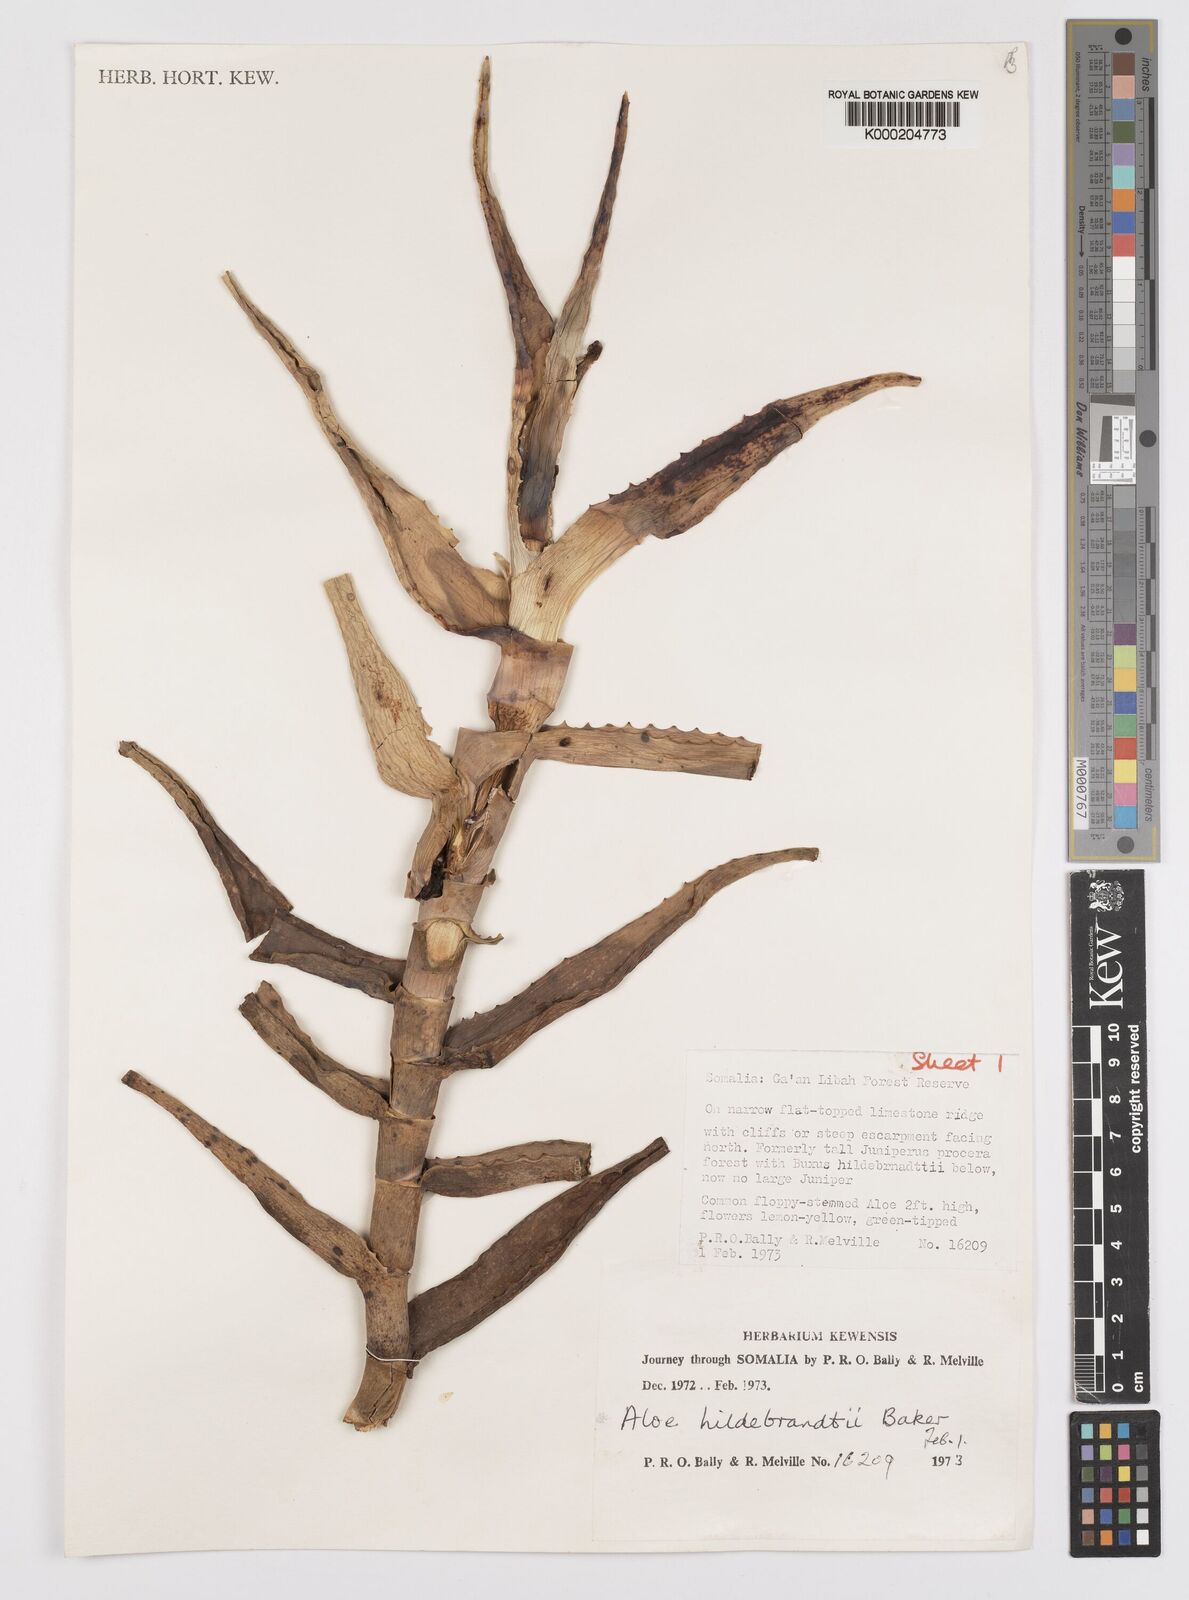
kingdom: Plantae
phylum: Tracheophyta
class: Liliopsida
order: Asparagales
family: Asphodelaceae
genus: Aloe
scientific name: Aloe hildebrandtii
